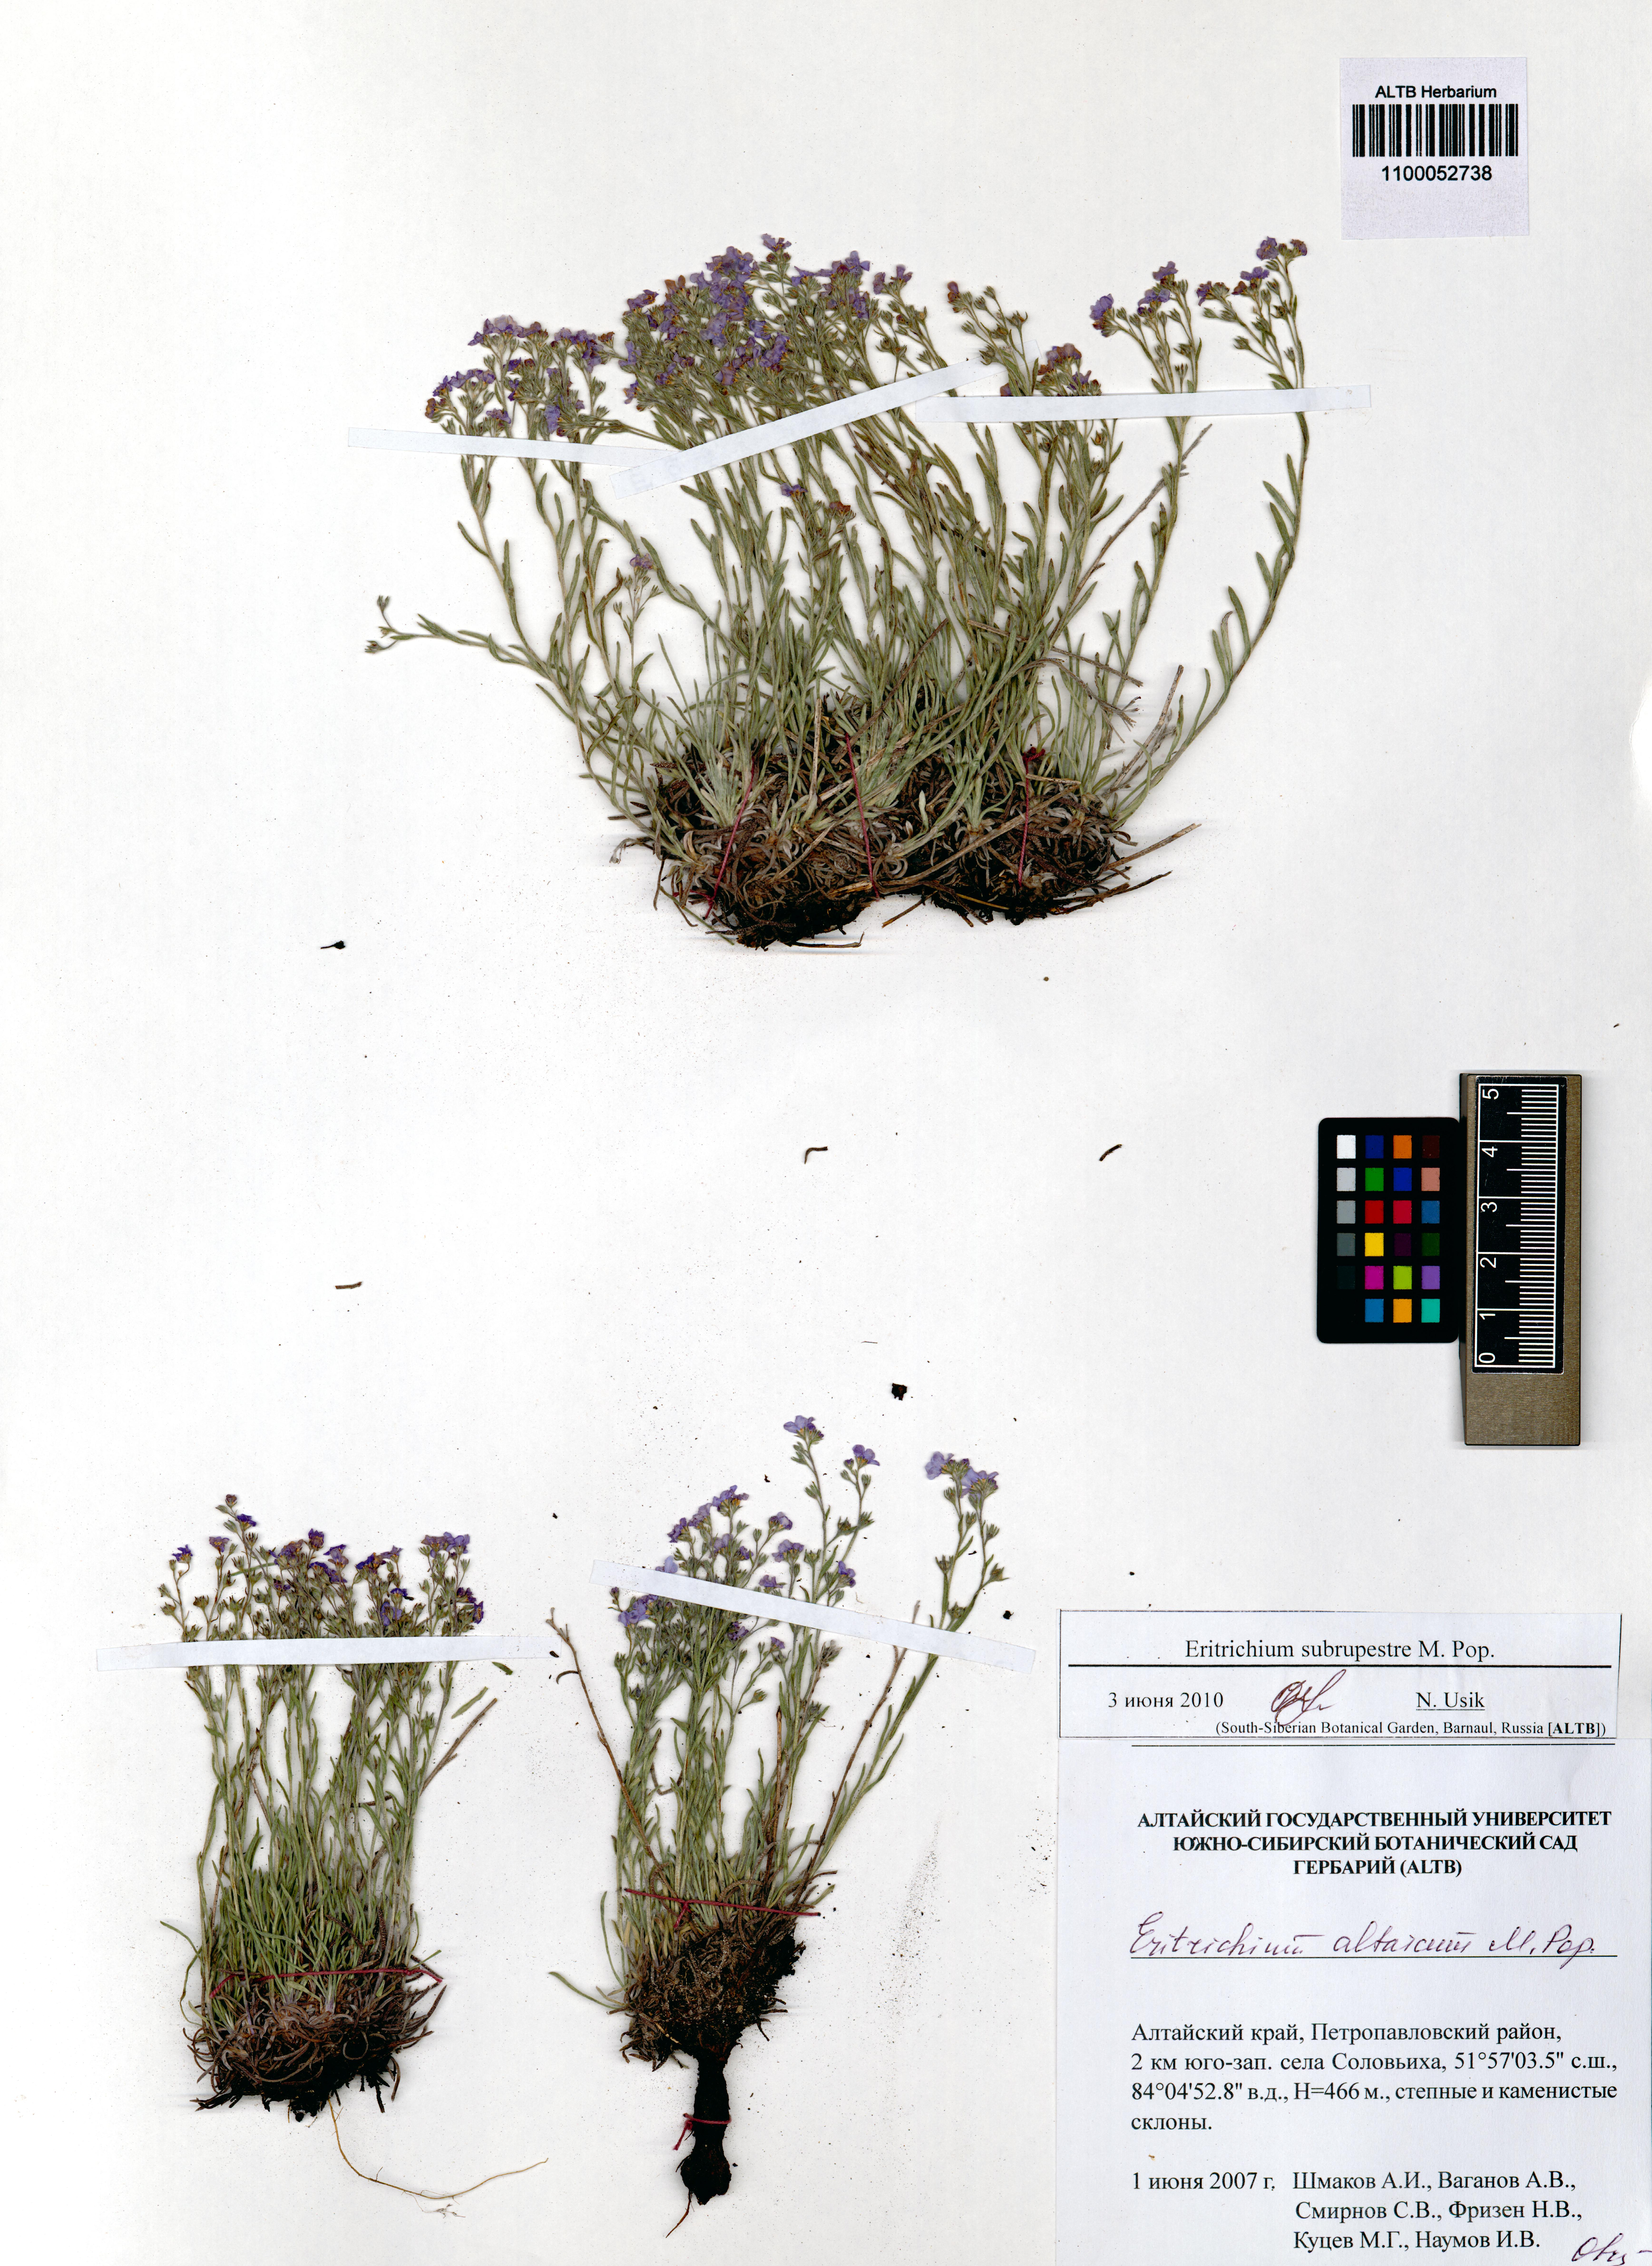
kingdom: Plantae
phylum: Tracheophyta
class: Magnoliopsida
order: Boraginales
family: Boraginaceae
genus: Eritrichium
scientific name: Eritrichium pauciflorum
